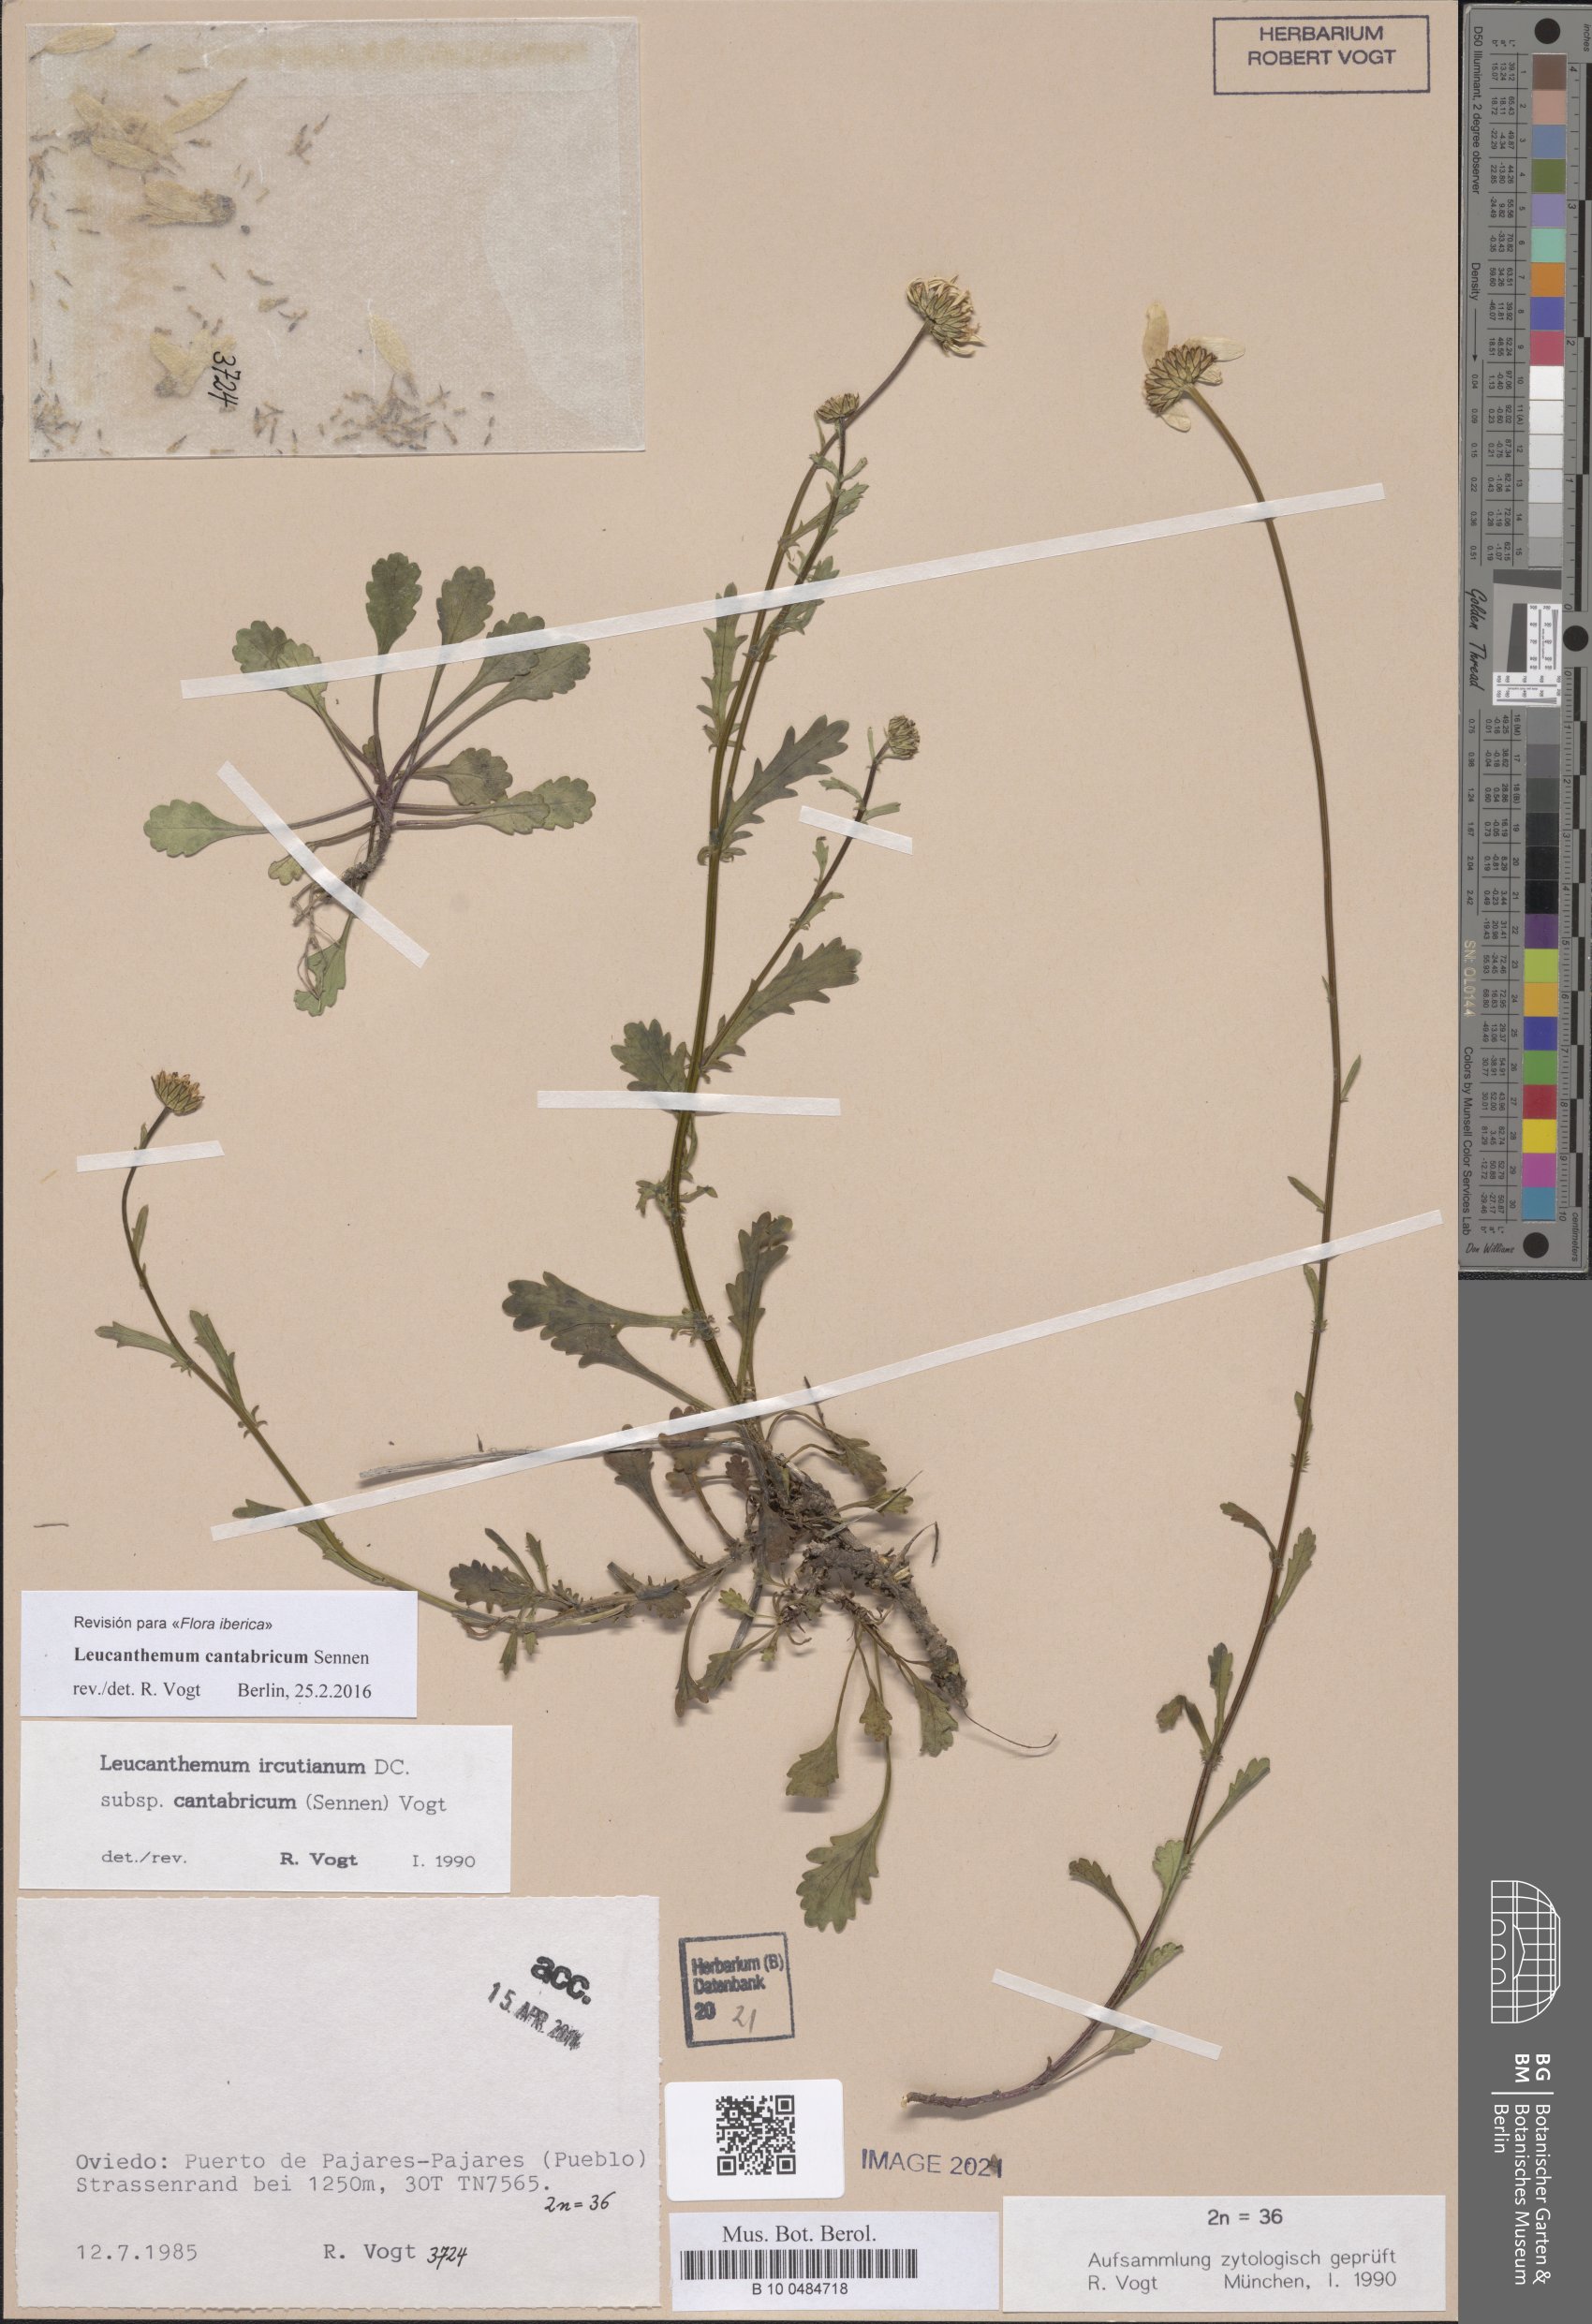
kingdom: Plantae
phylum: Tracheophyta
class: Magnoliopsida
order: Asterales
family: Asteraceae
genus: Leucanthemum
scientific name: Leucanthemum cantabricum
